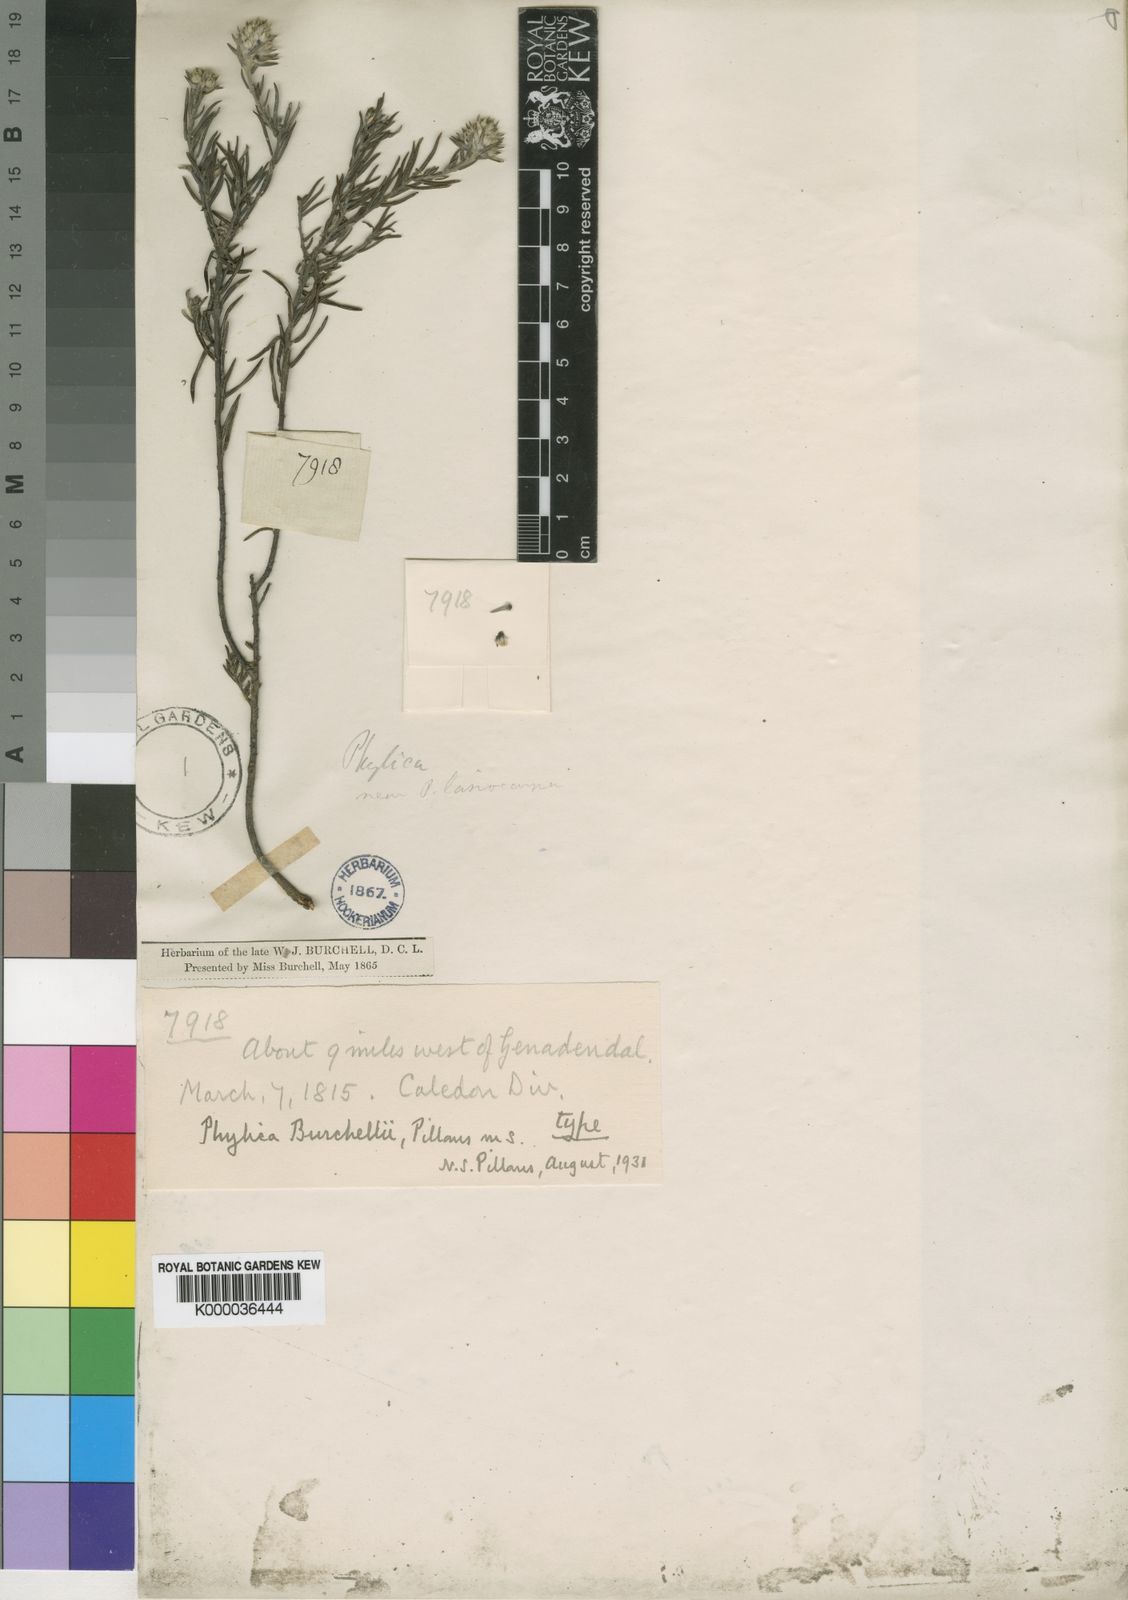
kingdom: Plantae
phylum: Tracheophyta
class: Magnoliopsida
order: Rosales
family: Rhamnaceae
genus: Phylica
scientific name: Phylica burchellii
